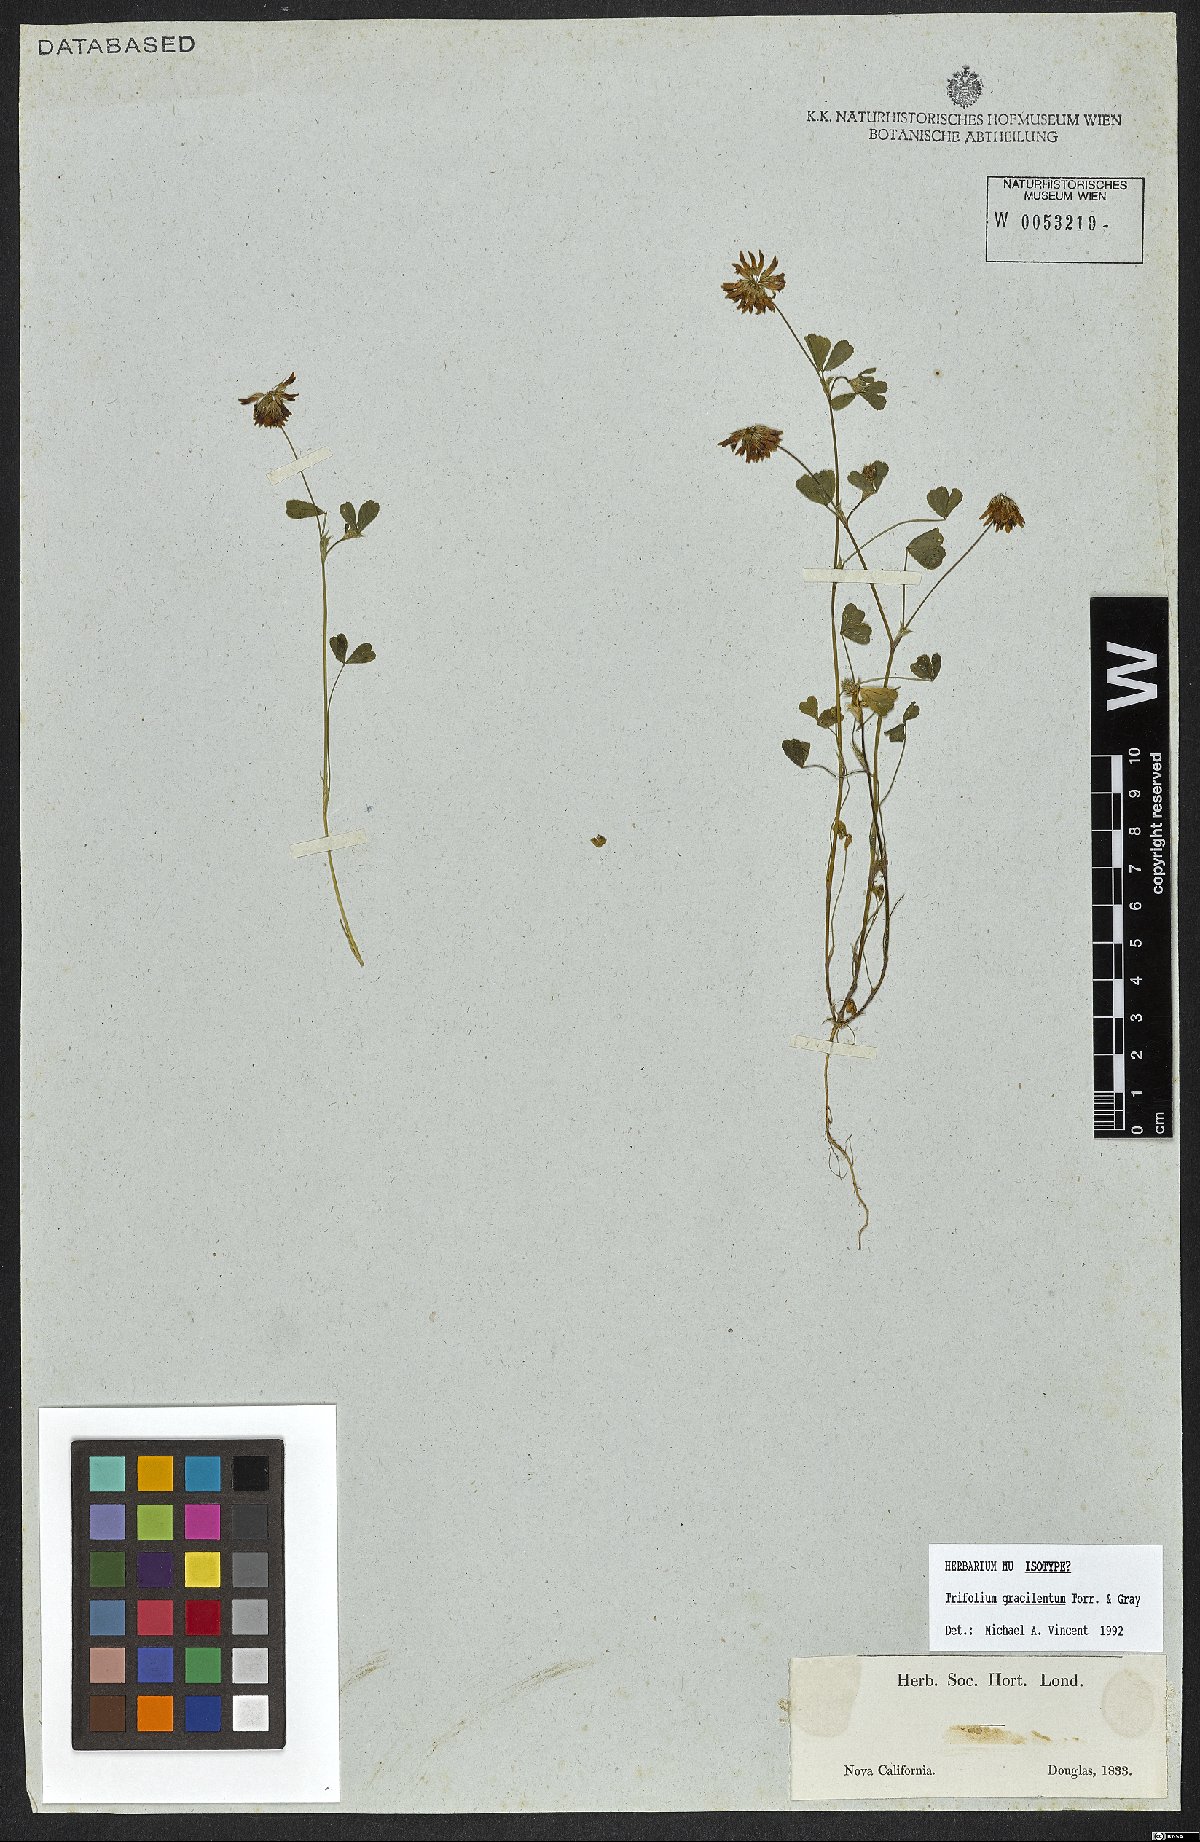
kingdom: Plantae
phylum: Tracheophyta
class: Magnoliopsida
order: Fabales
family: Fabaceae
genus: Trifolium
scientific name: Trifolium gracilentum
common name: Slender clover
